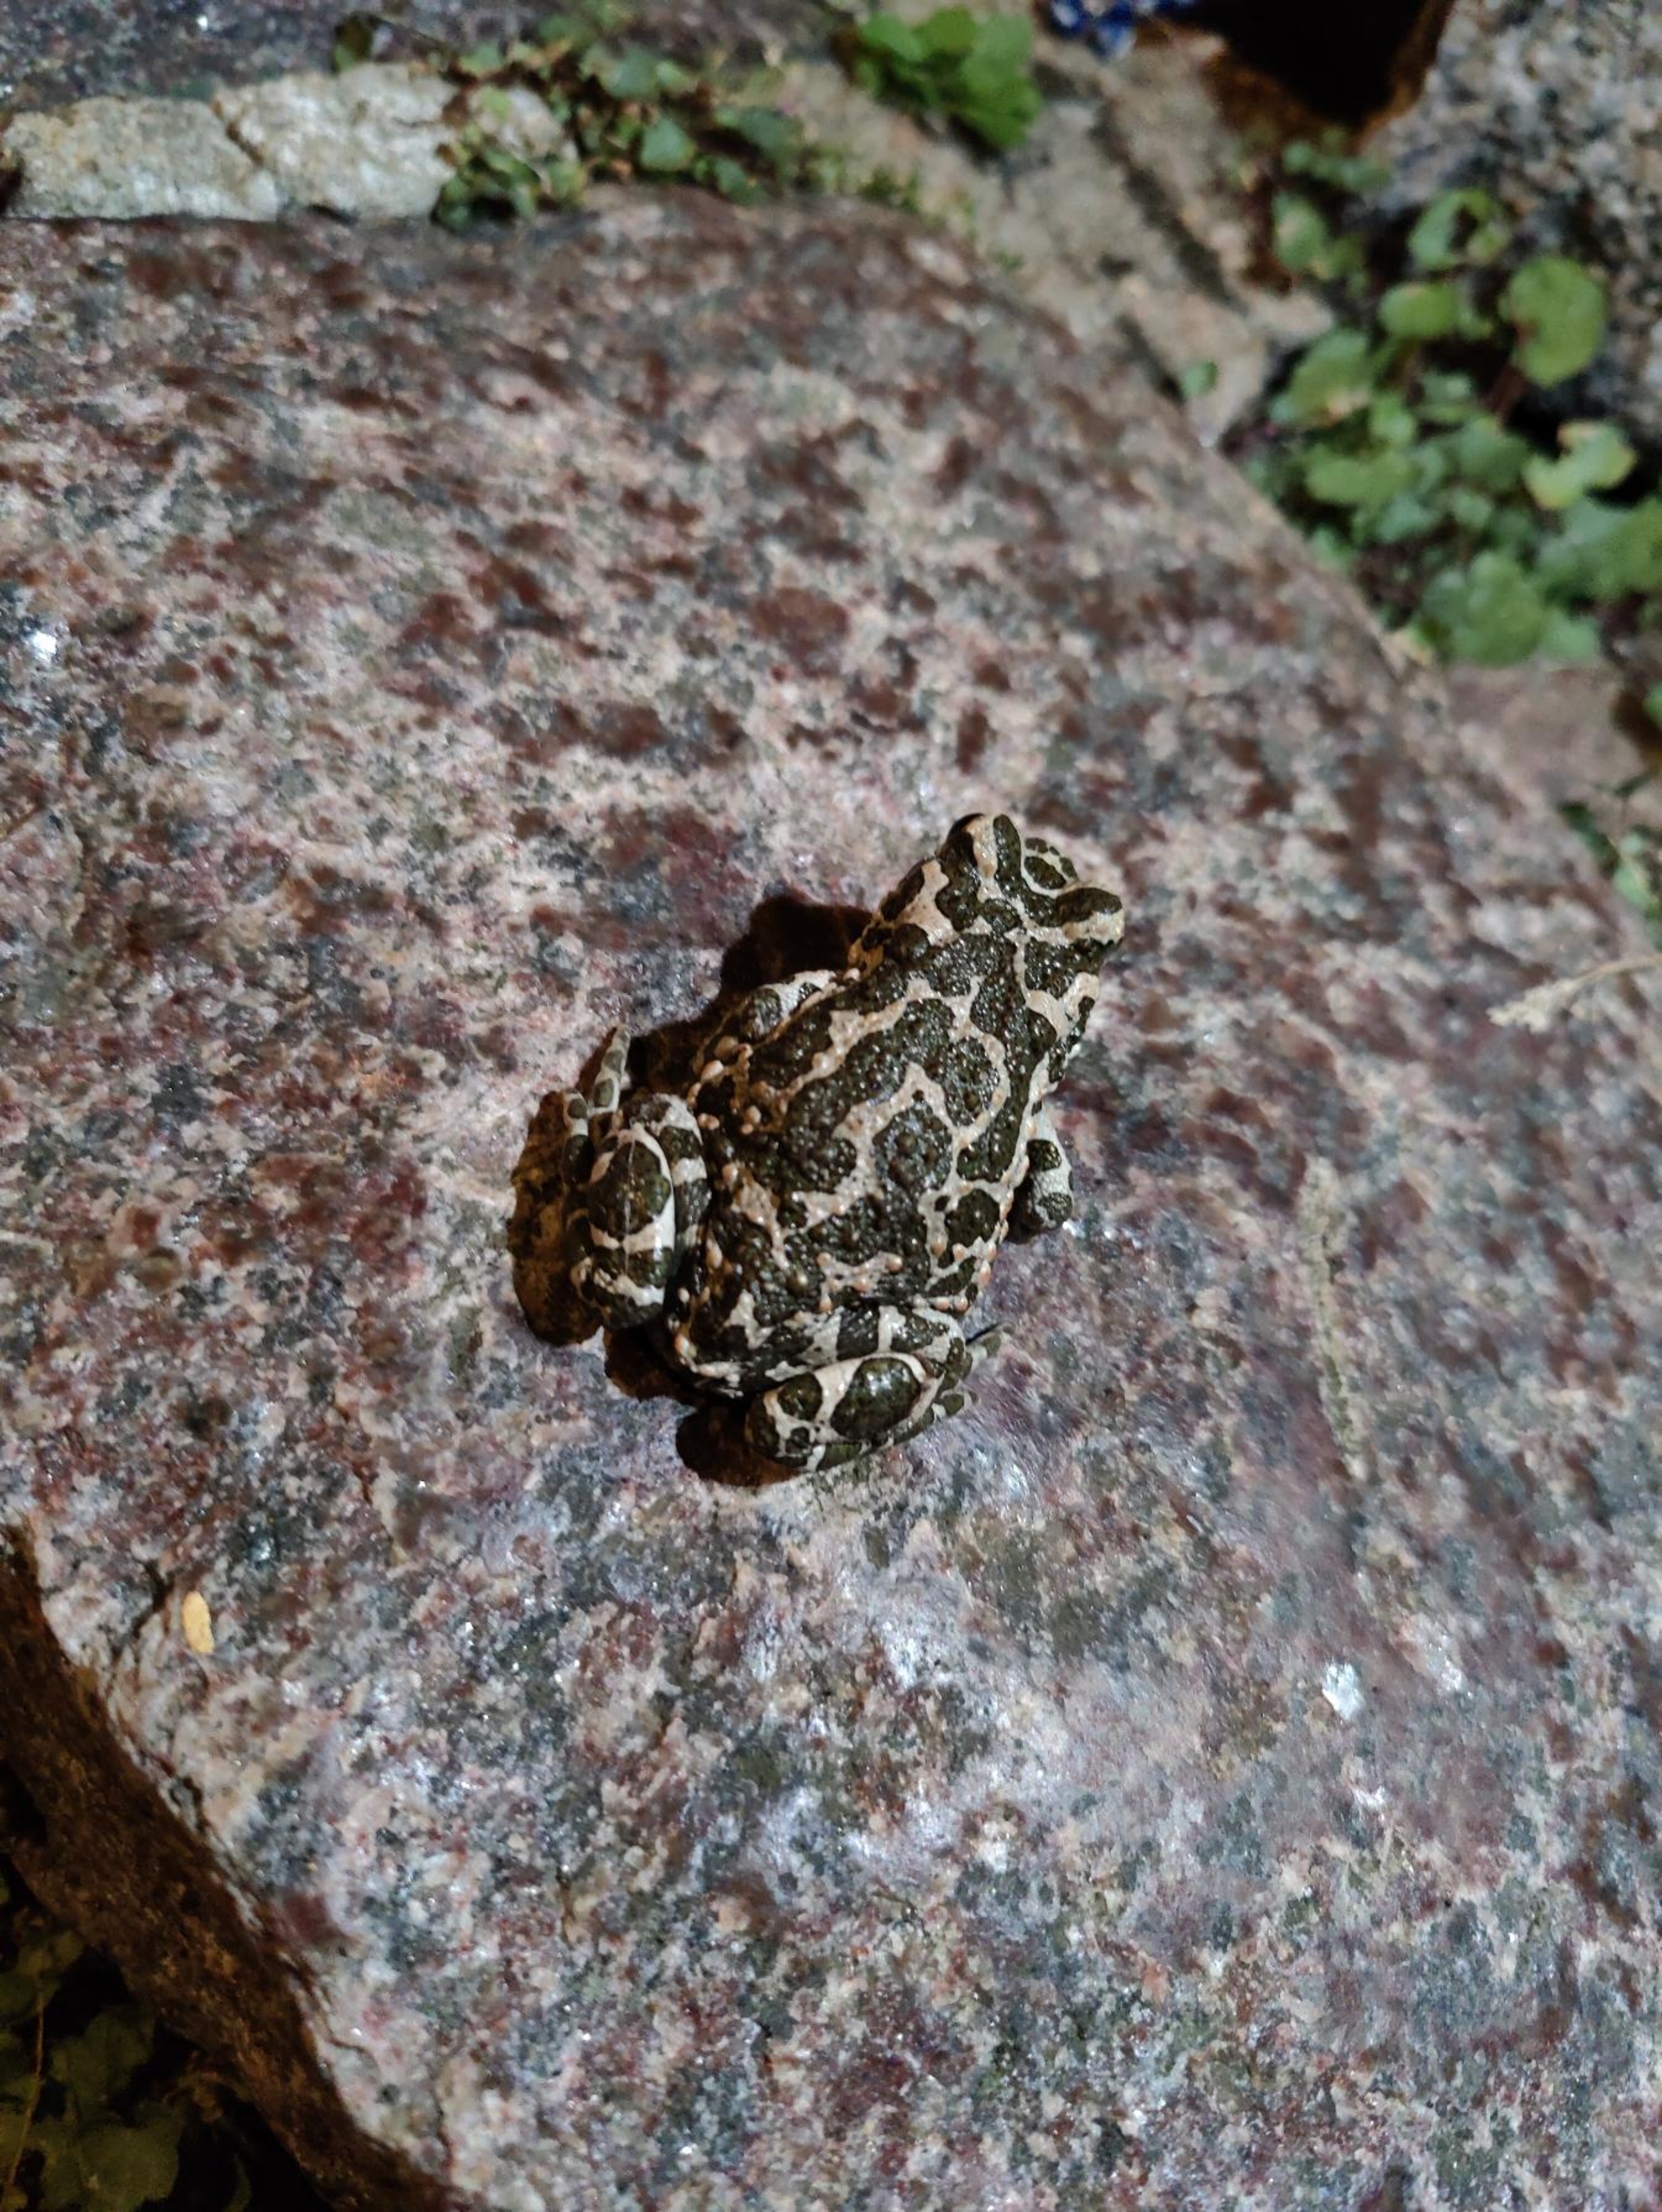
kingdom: Animalia
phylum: Chordata
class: Amphibia
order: Anura
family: Bufonidae
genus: Bufotes
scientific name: Bufotes viridis
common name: Grønbroget tudse
